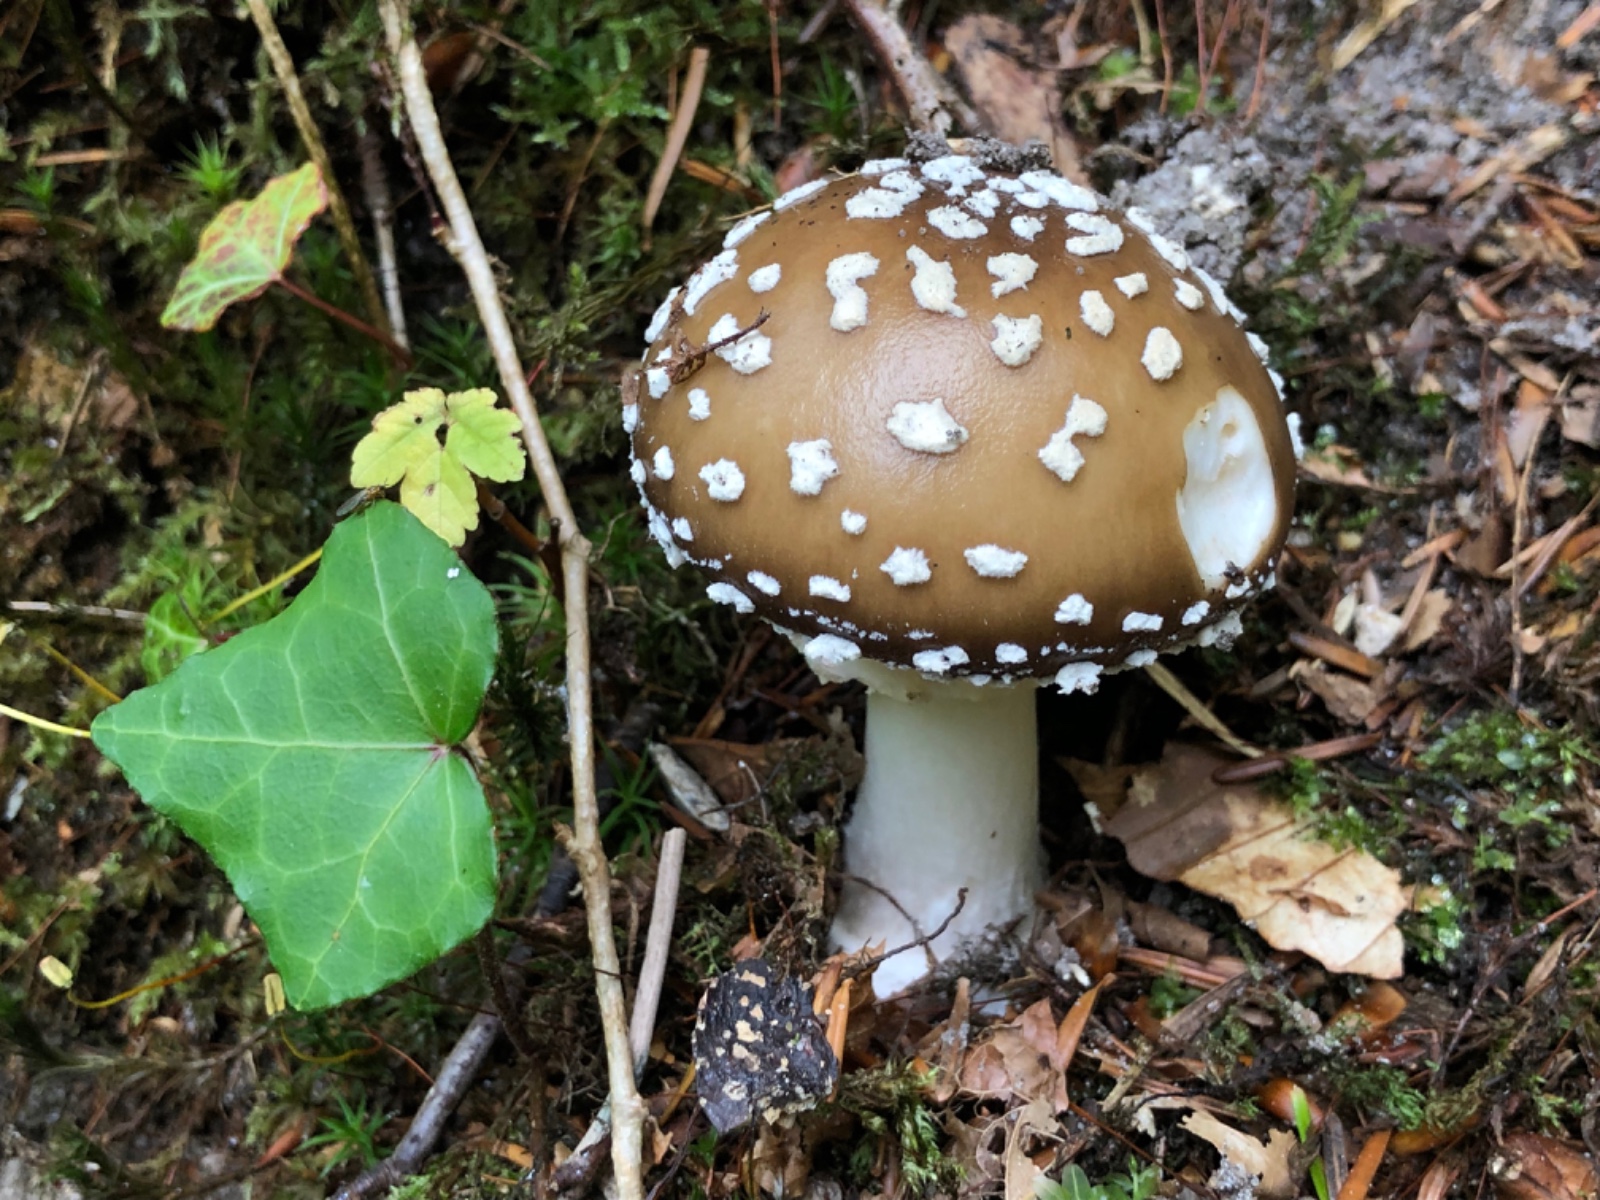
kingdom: Fungi
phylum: Basidiomycota
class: Agaricomycetes
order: Agaricales
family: Amanitaceae
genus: Amanita
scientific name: Amanita pantherina
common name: panter-fluesvamp
